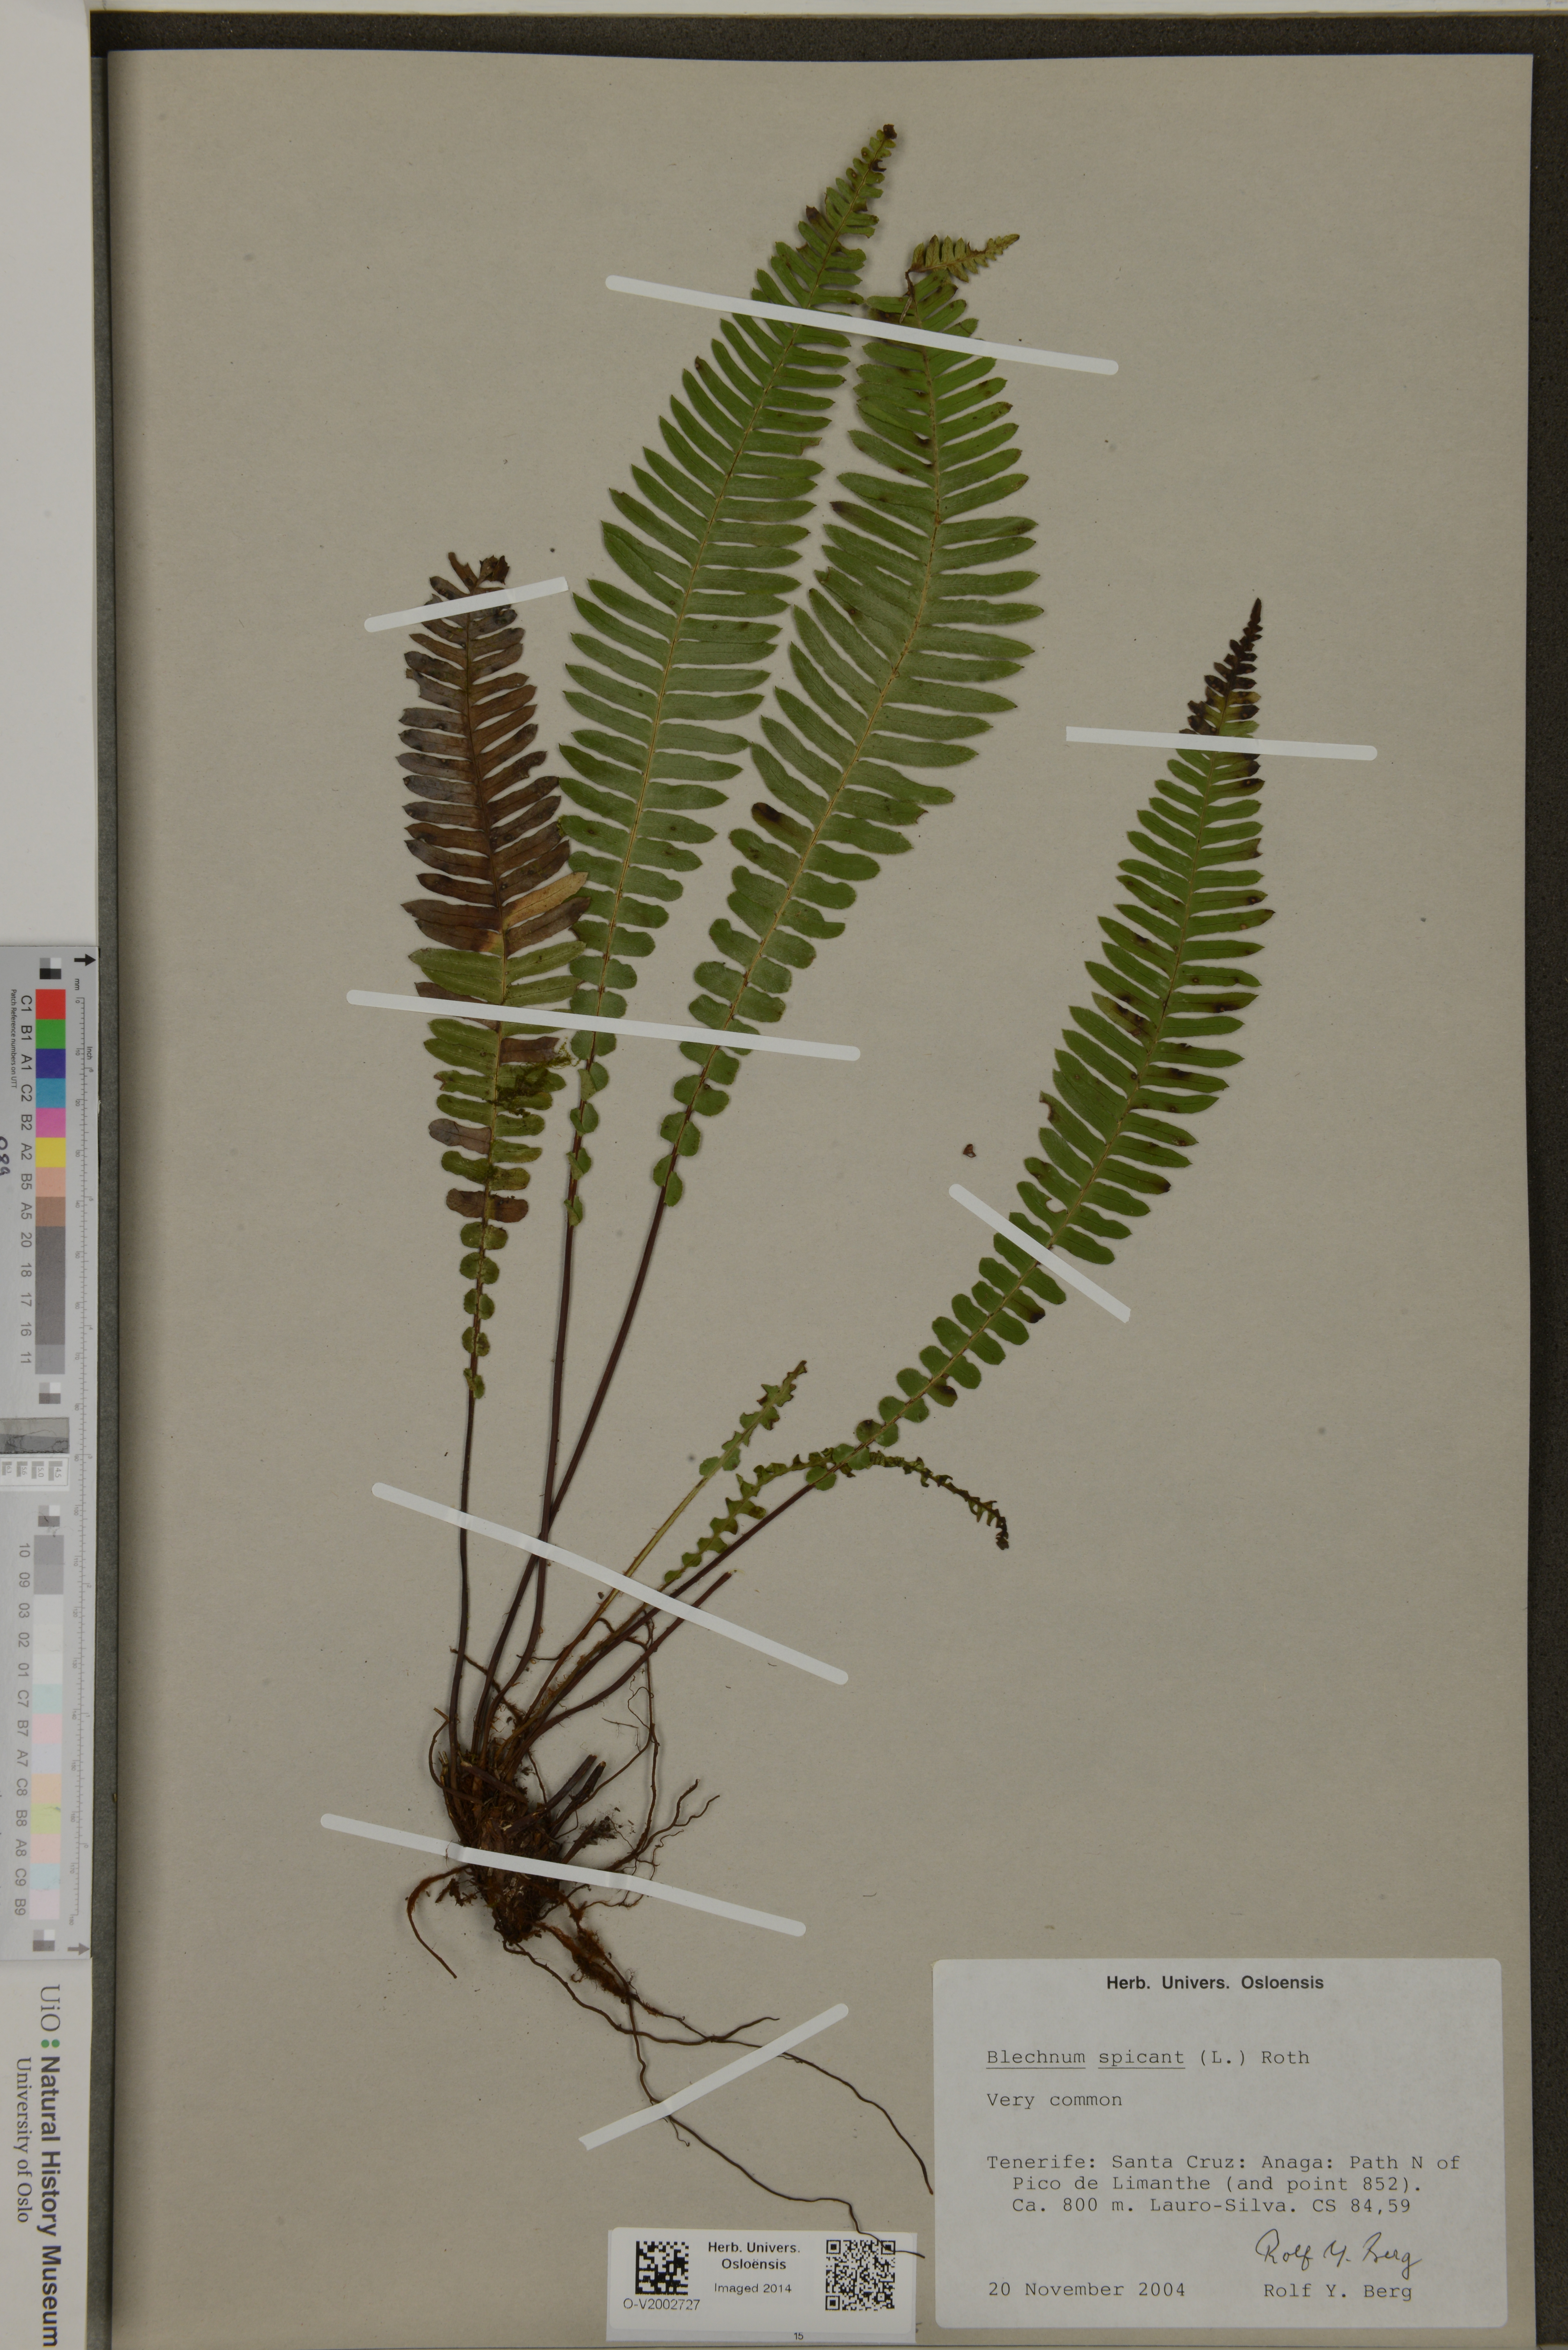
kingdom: Plantae
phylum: Tracheophyta
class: Polypodiopsida
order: Polypodiales
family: Blechnaceae
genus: Struthiopteris
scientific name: Struthiopteris spicant
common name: Deer fern
